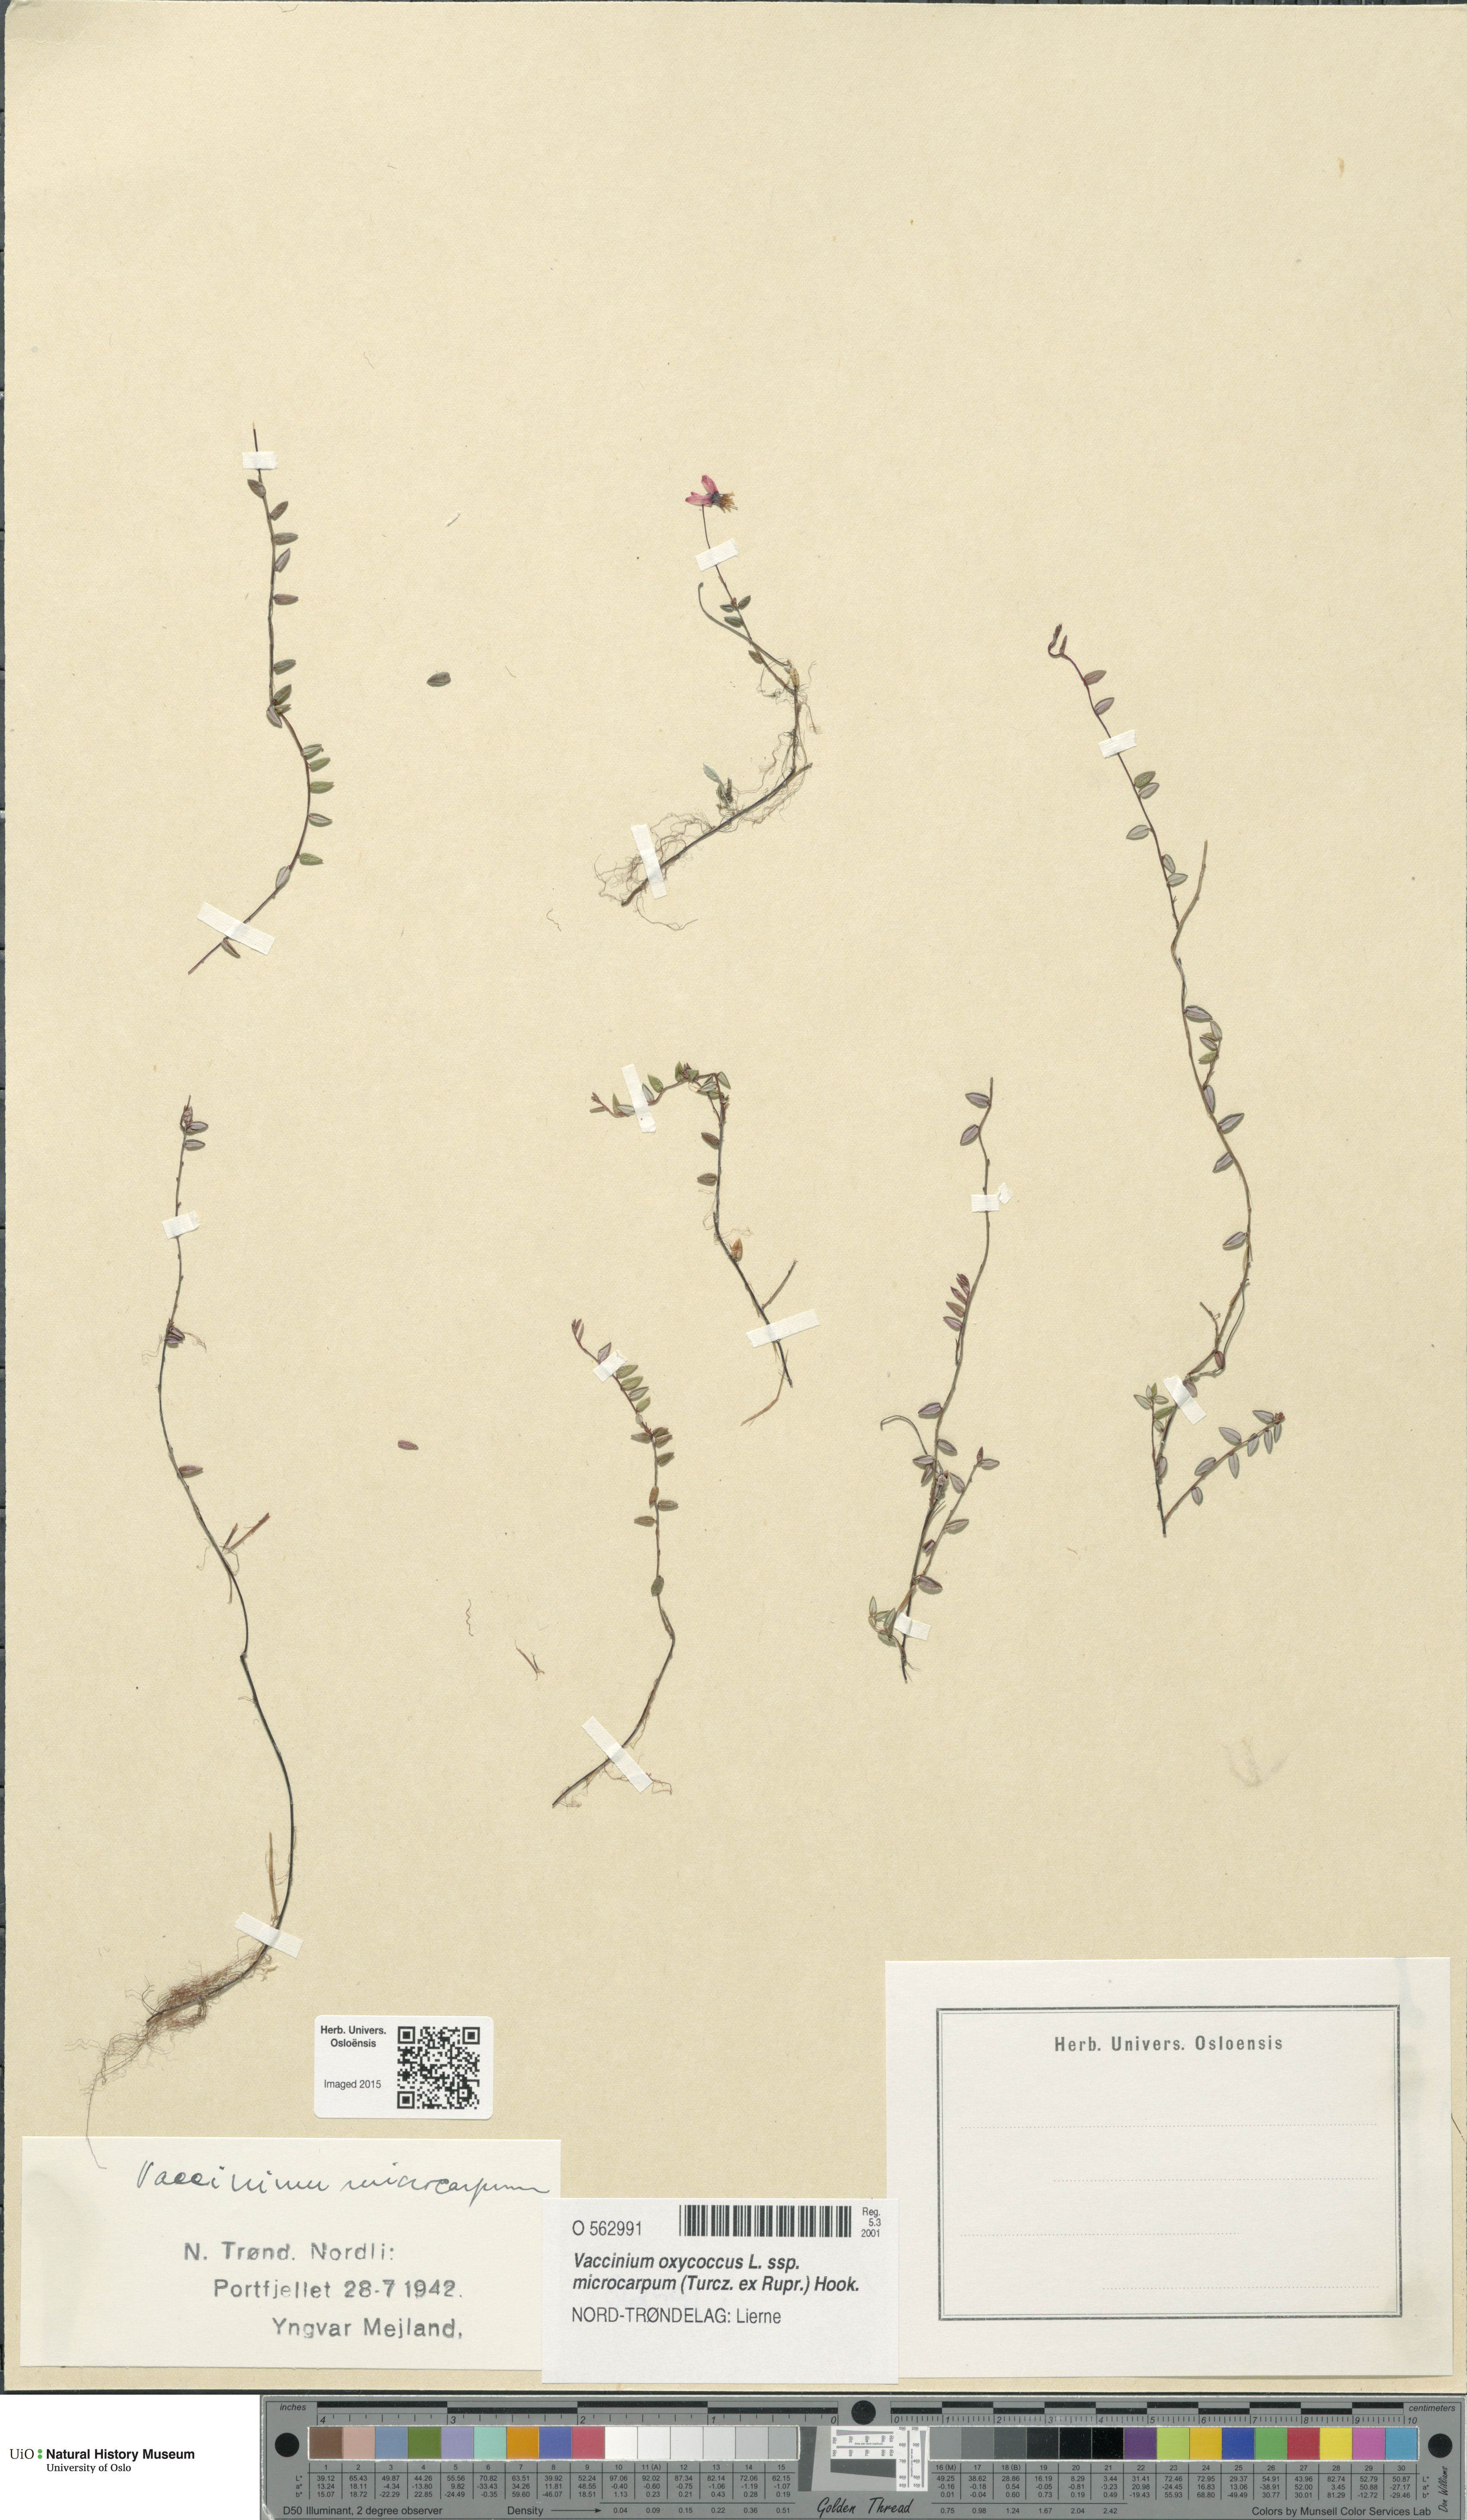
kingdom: Plantae
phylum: Tracheophyta
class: Magnoliopsida
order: Ericales
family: Ericaceae
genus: Vaccinium
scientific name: Vaccinium microcarpum
